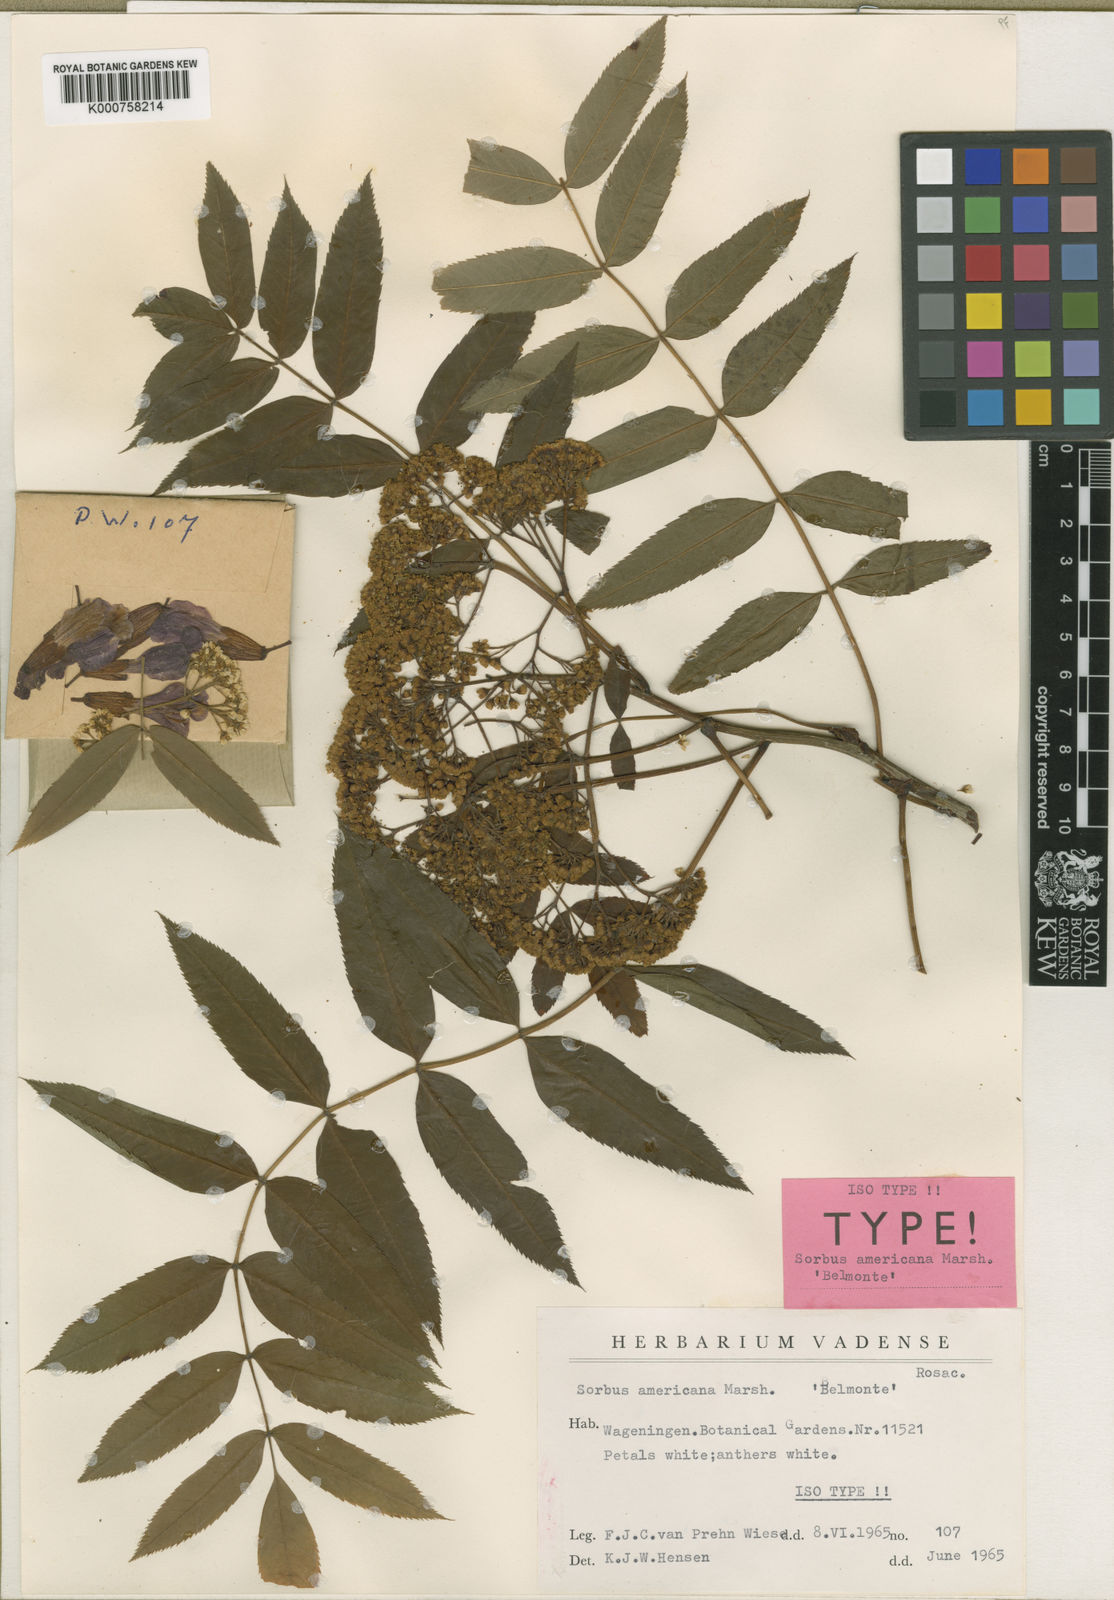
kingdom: Plantae
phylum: Tracheophyta
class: Magnoliopsida
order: Rosales
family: Rosaceae
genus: Sorbus
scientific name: Sorbus americana
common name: American mountain-ash
